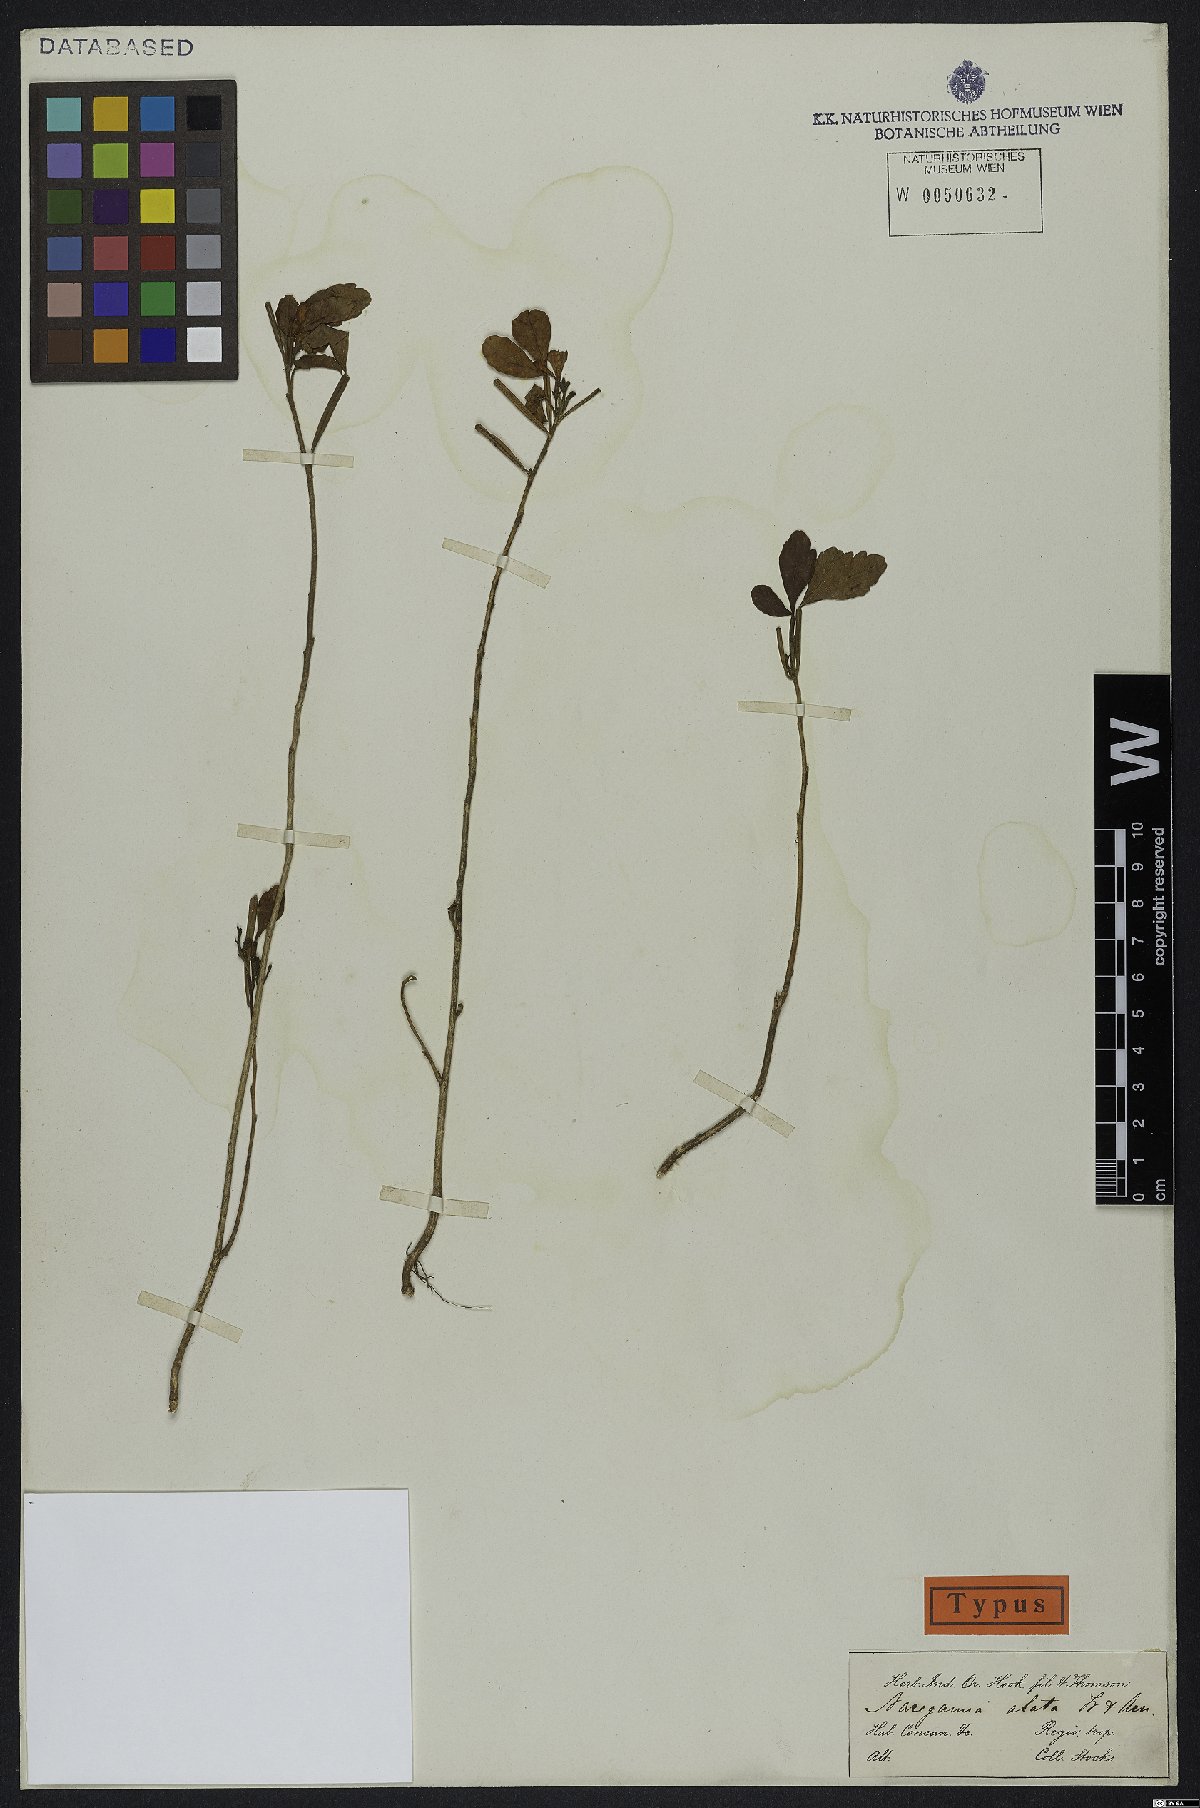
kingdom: Plantae
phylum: Tracheophyta
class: Magnoliopsida
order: Sapindales
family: Meliaceae
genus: Naregamia
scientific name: Naregamia alata
